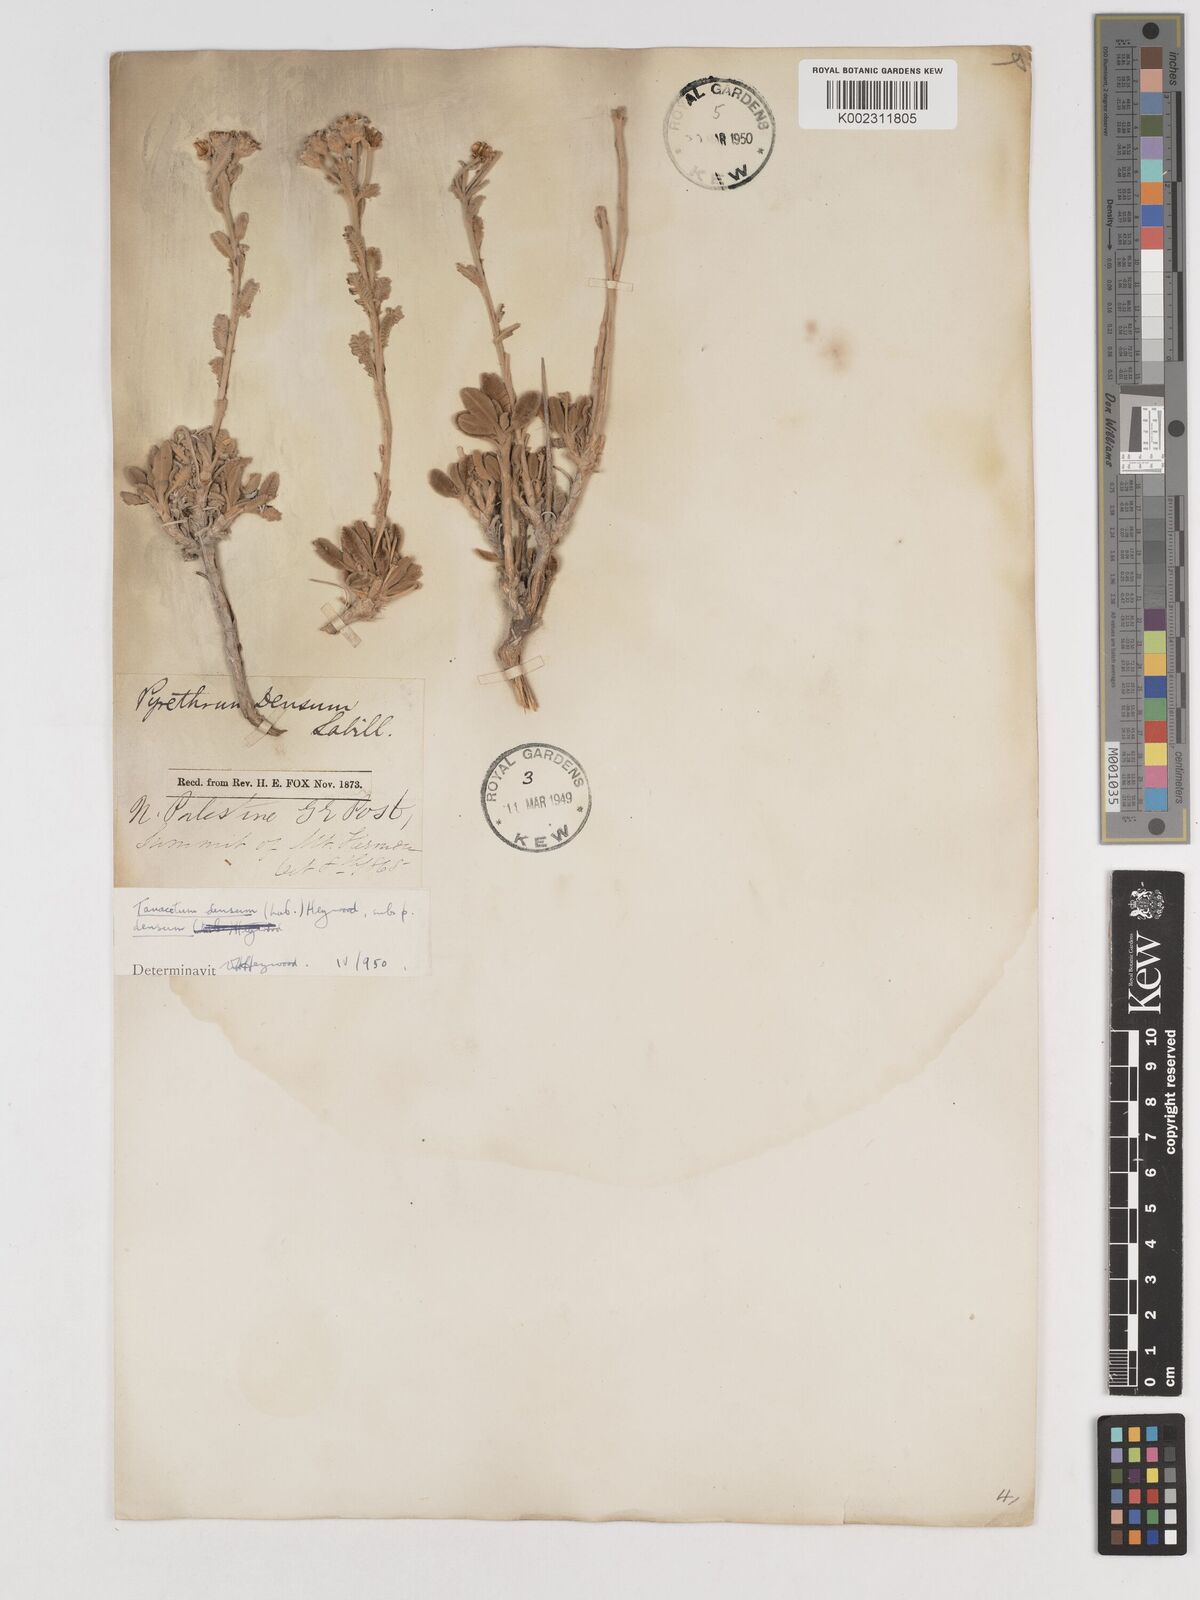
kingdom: Plantae
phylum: Tracheophyta
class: Magnoliopsida
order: Asterales
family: Asteraceae
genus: Tanacetum
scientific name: Tanacetum densum
